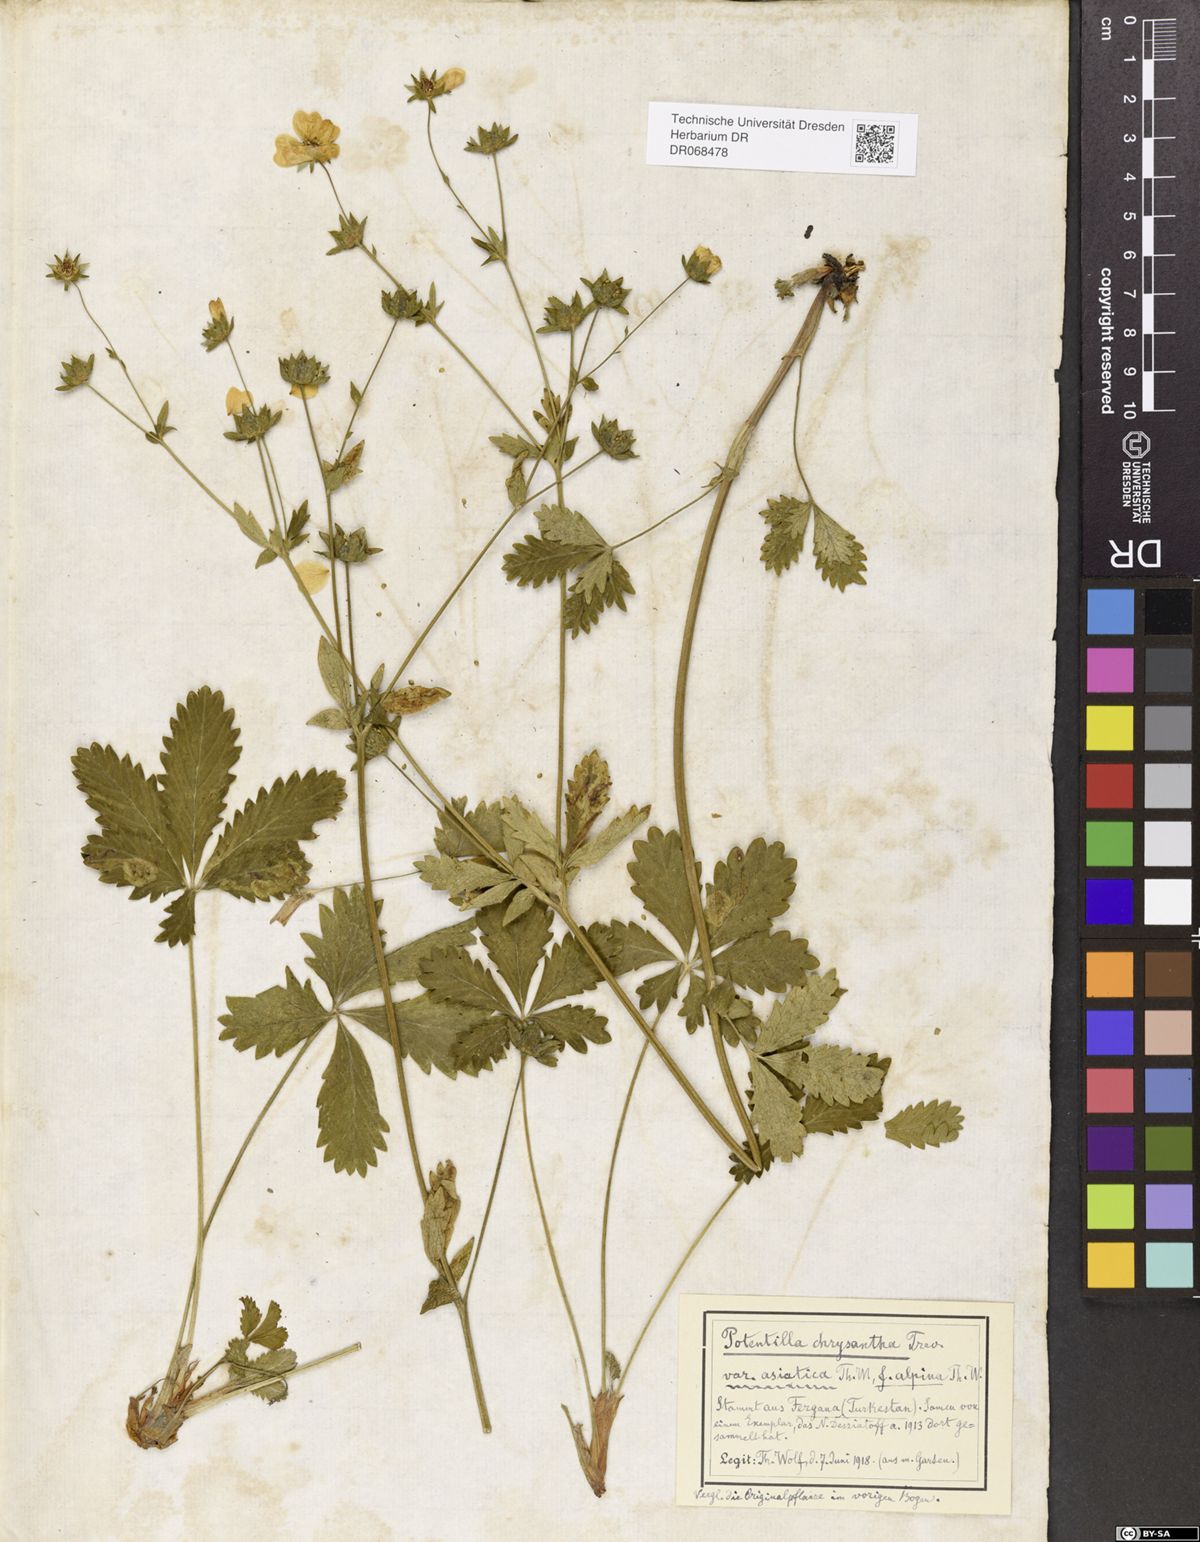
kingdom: Plantae
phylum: Tracheophyta
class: Magnoliopsida
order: Rosales
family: Rosaceae
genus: Potentilla
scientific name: Potentilla asiatica
